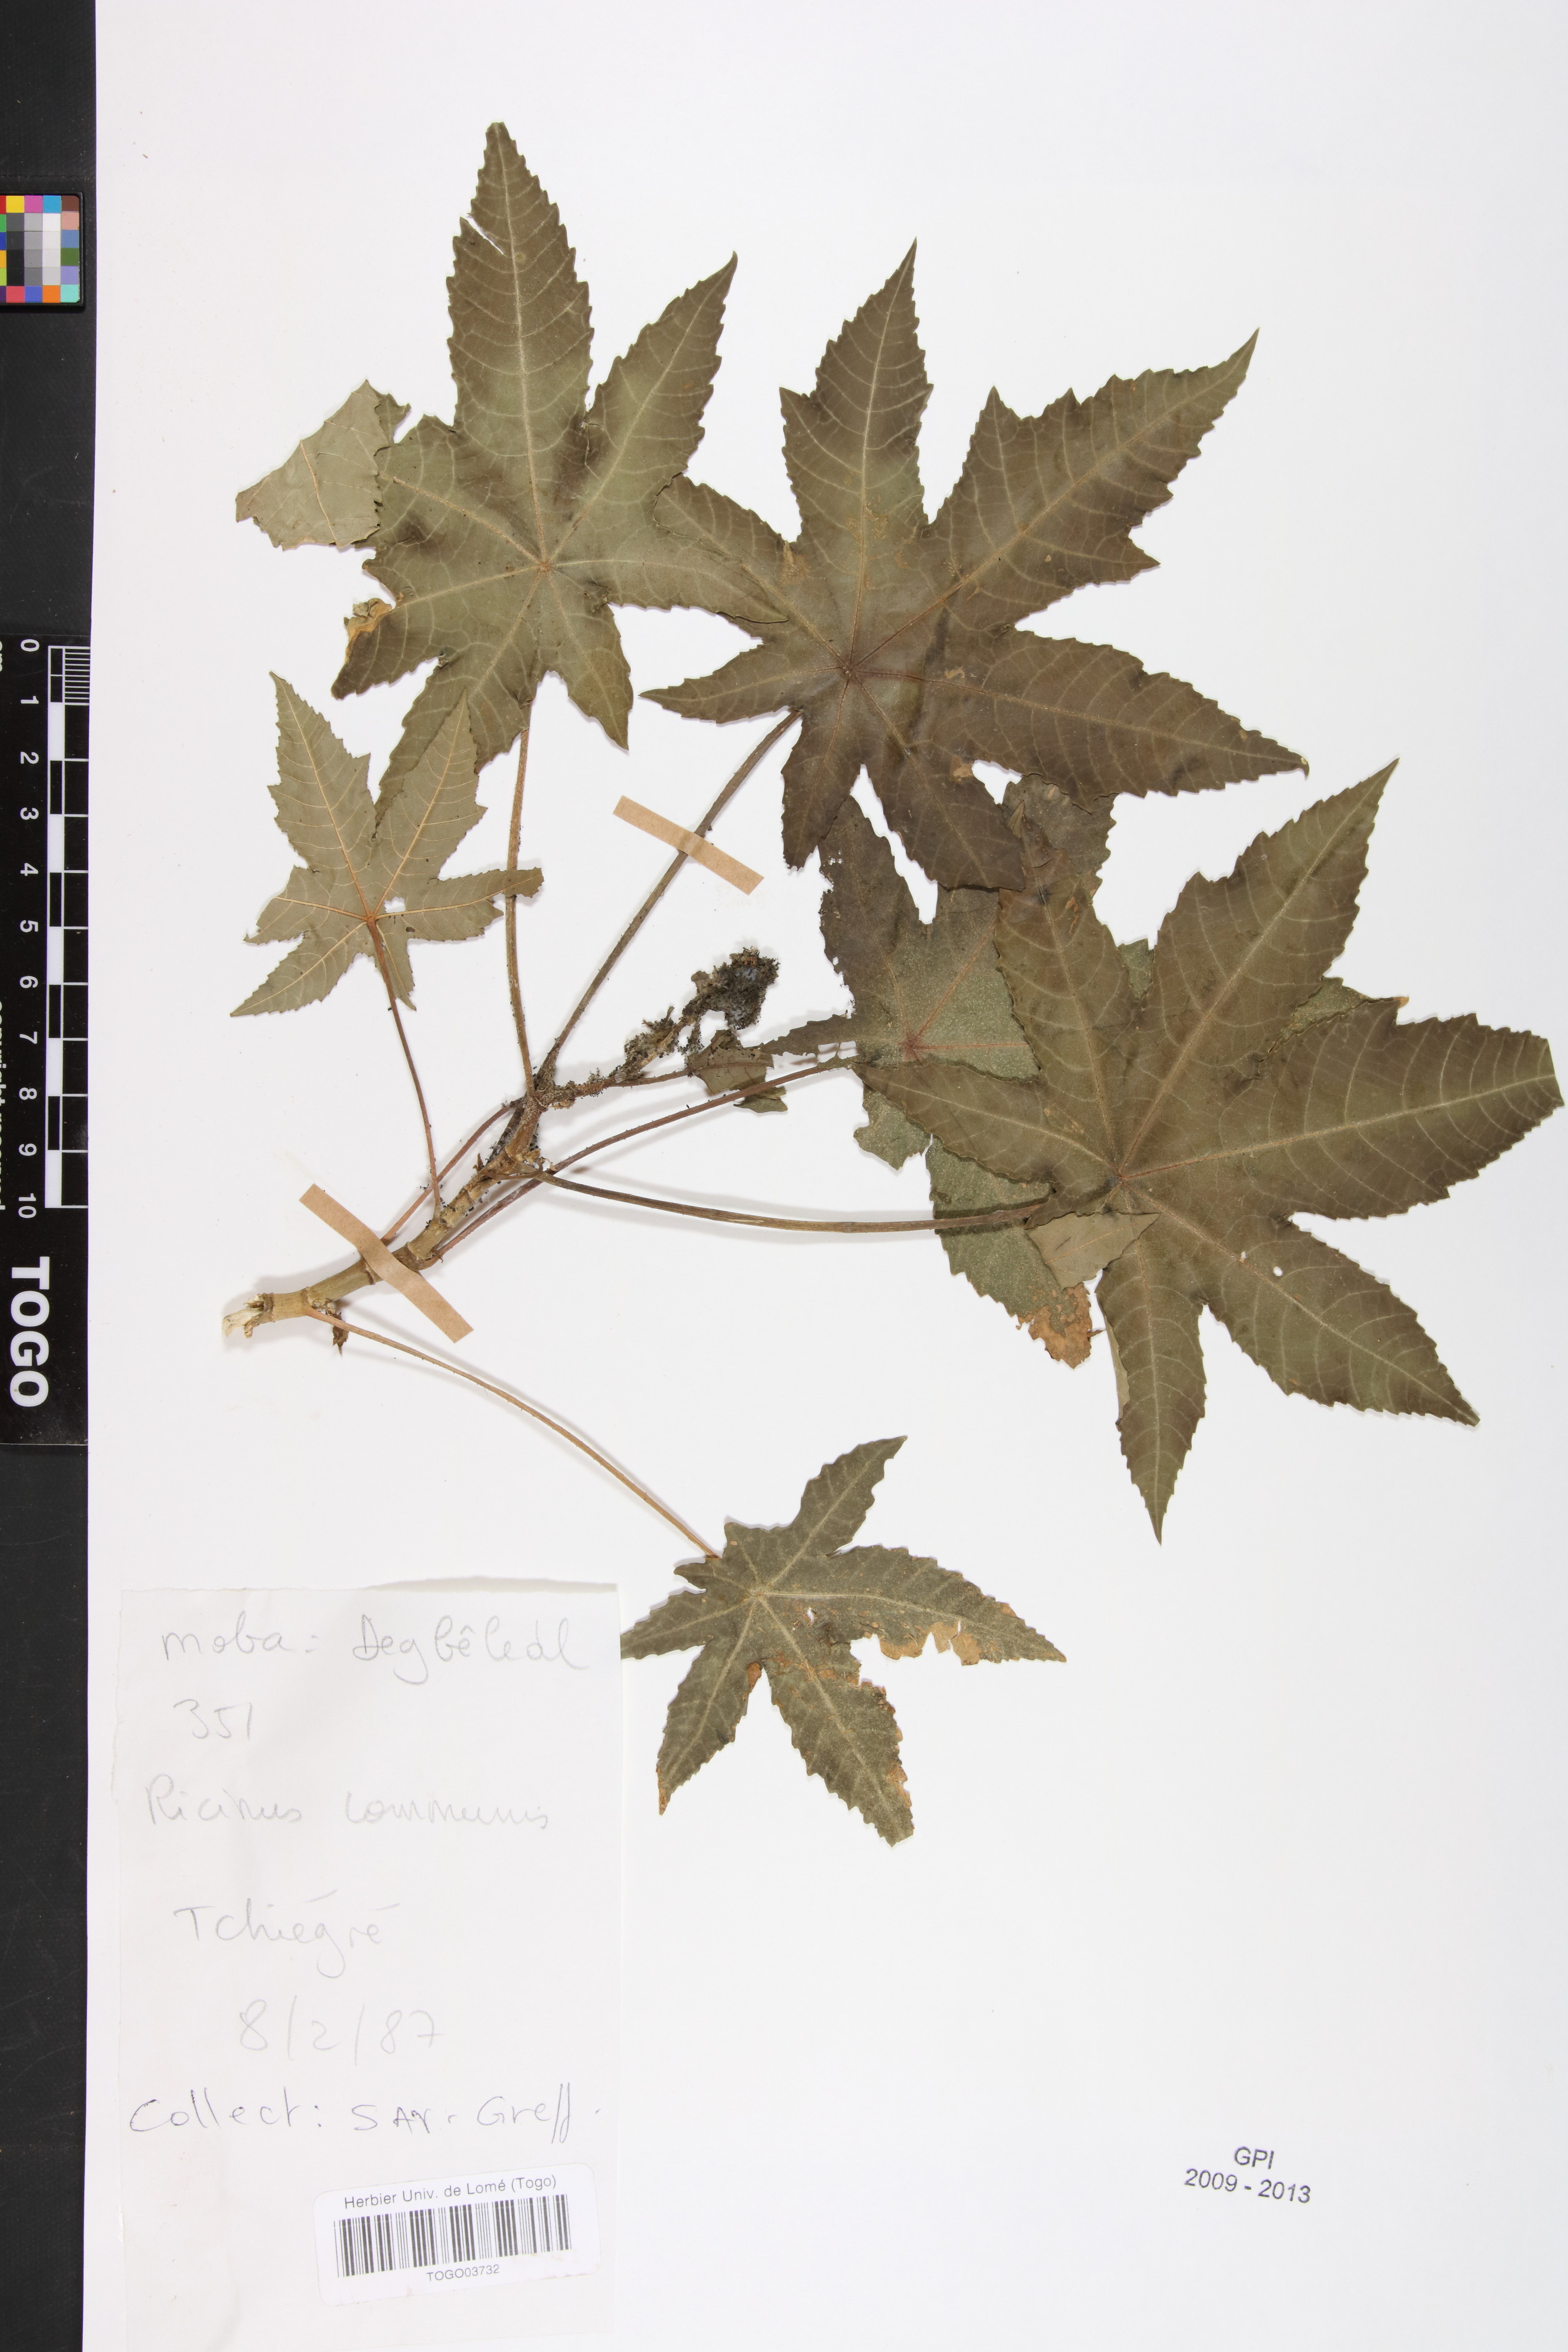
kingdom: Plantae
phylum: Tracheophyta
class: Magnoliopsida
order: Malpighiales
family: Euphorbiaceae
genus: Ricinus
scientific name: Ricinus communis
